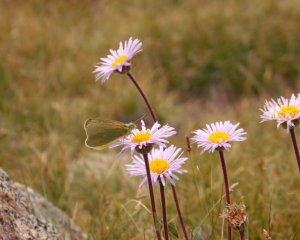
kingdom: Animalia
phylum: Arthropoda
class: Insecta
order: Lepidoptera
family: Pieridae
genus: Colias
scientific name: Colias behrii
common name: Sierra Sulphur
